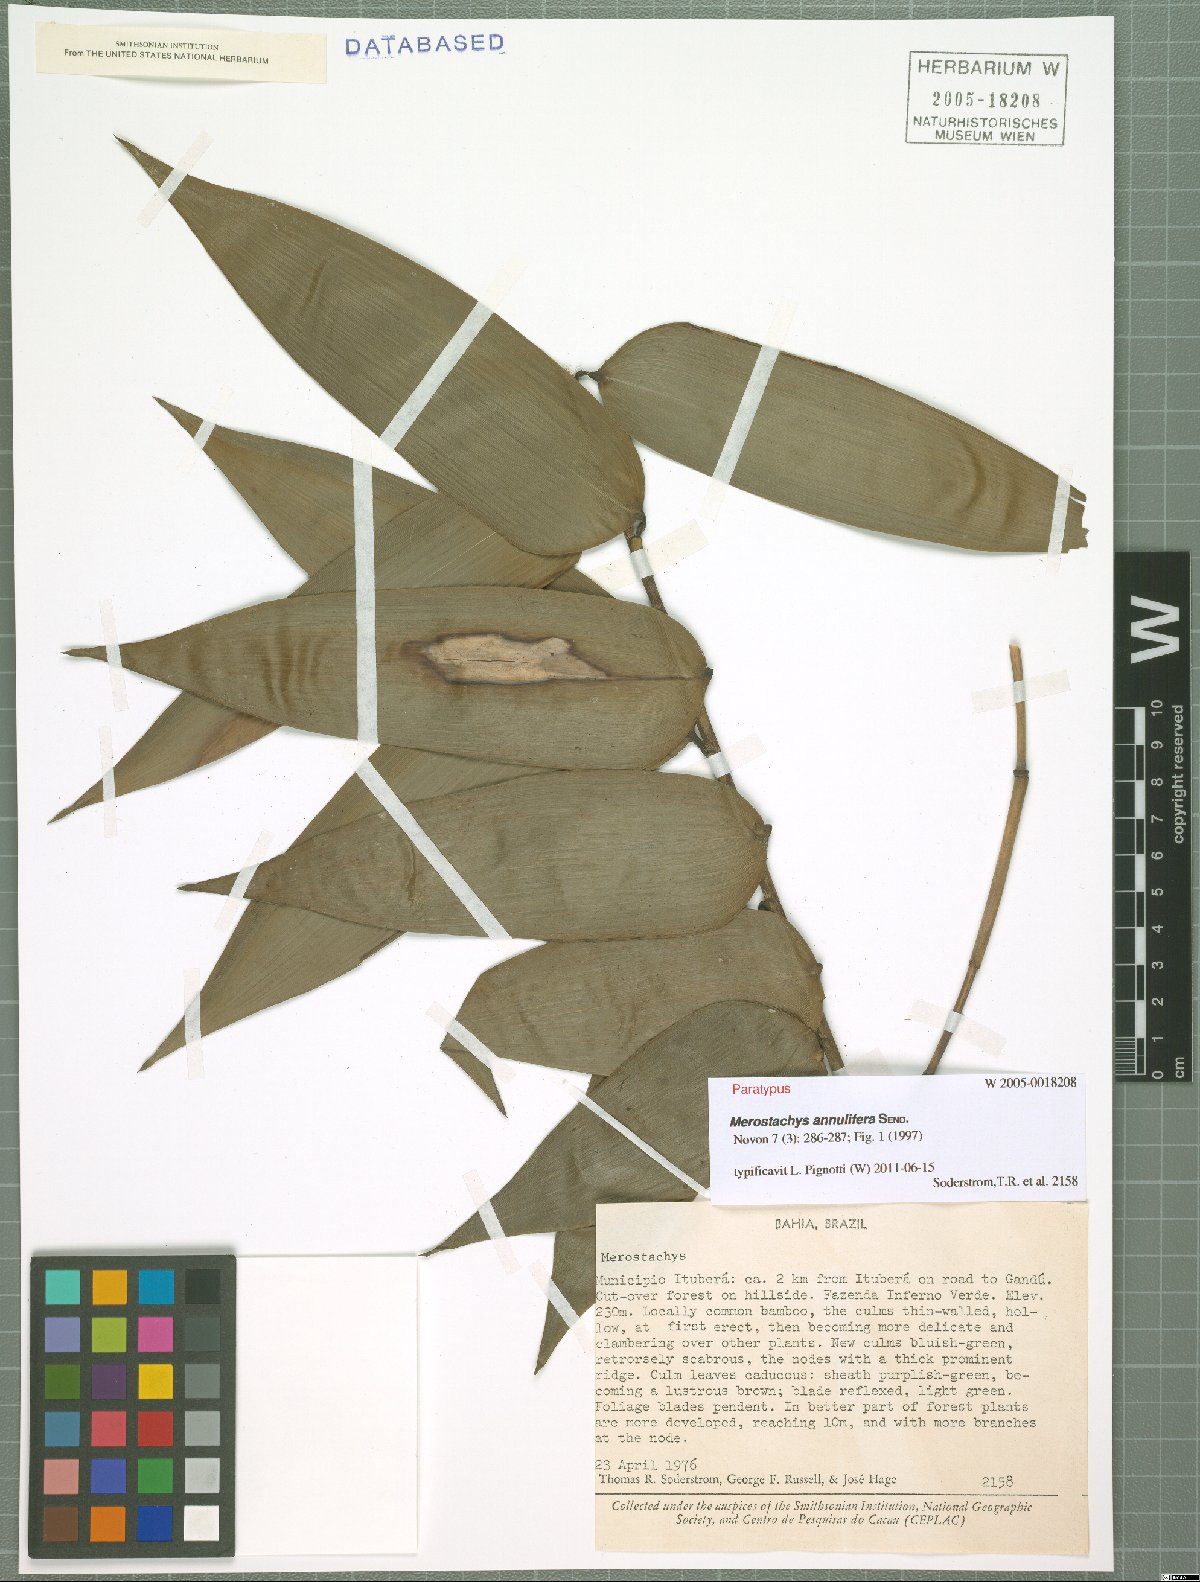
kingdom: Plantae
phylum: Tracheophyta
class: Liliopsida
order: Poales
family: Poaceae
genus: Merostachys
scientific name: Merostachys annulifera
